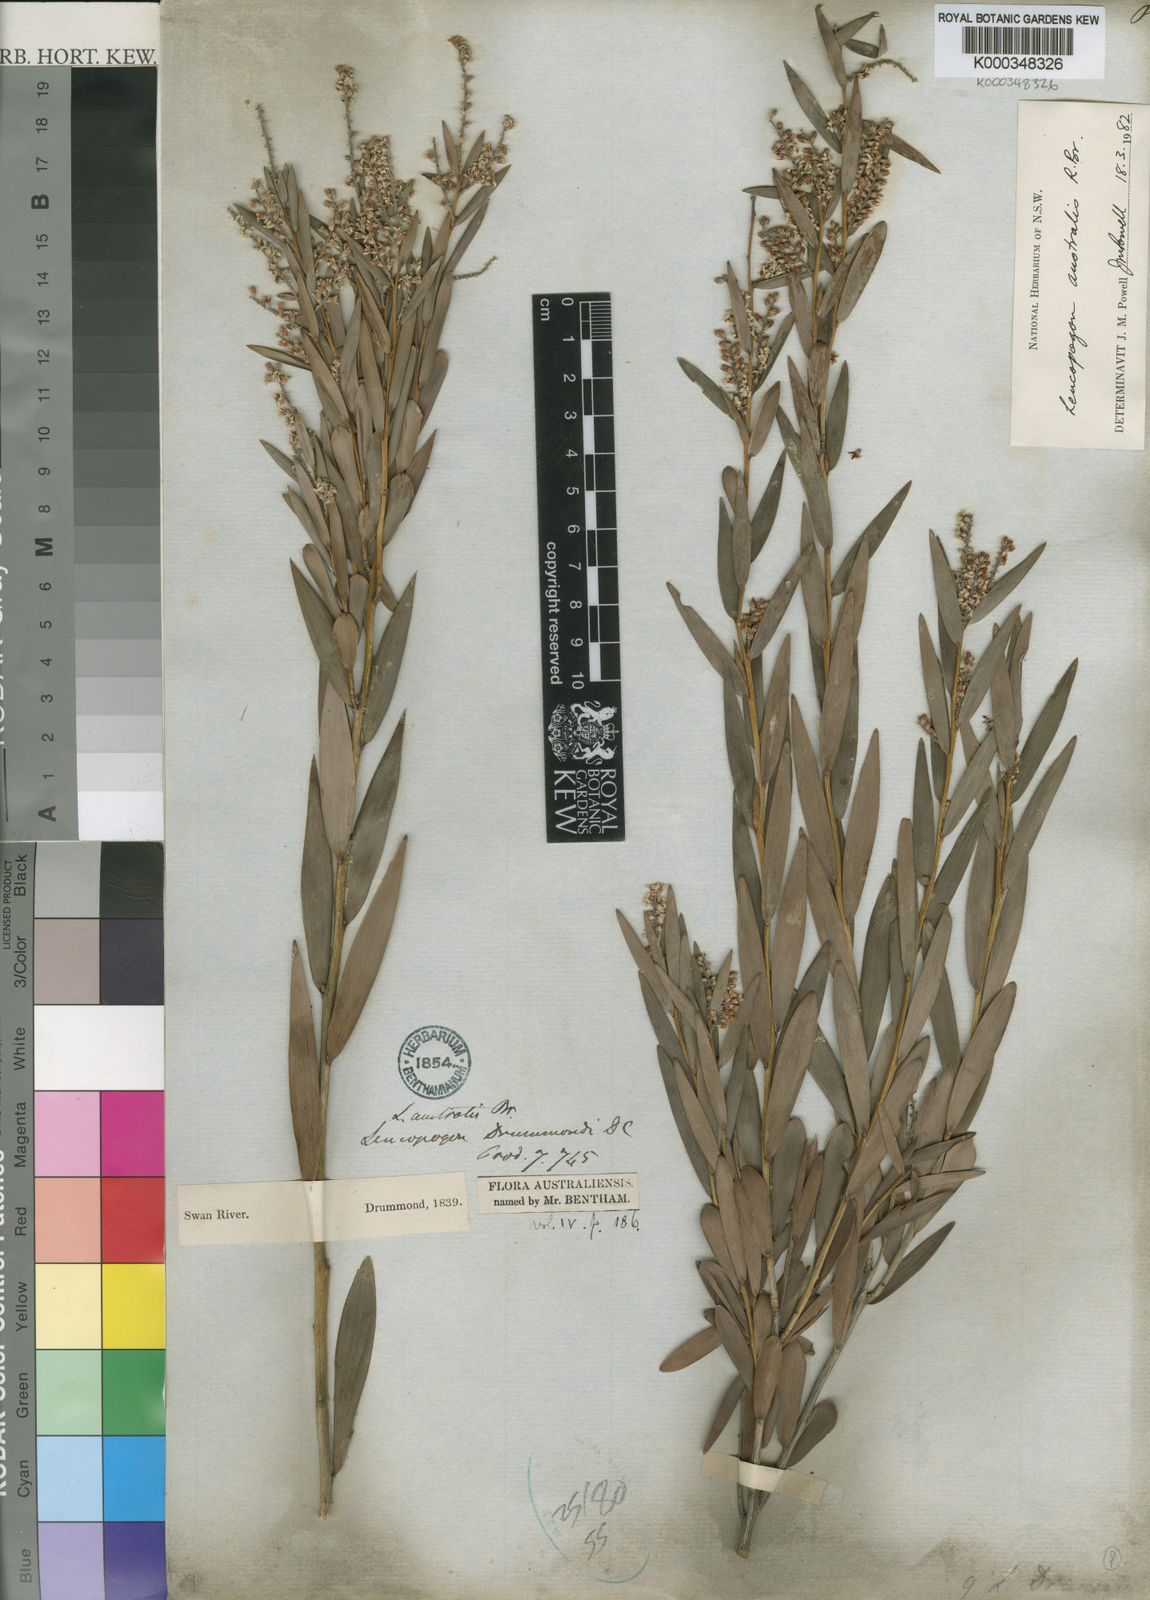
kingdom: Plantae
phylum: Tracheophyta
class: Magnoliopsida
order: Ericales
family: Ericaceae
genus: Leucopogon
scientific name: Leucopogon australis
